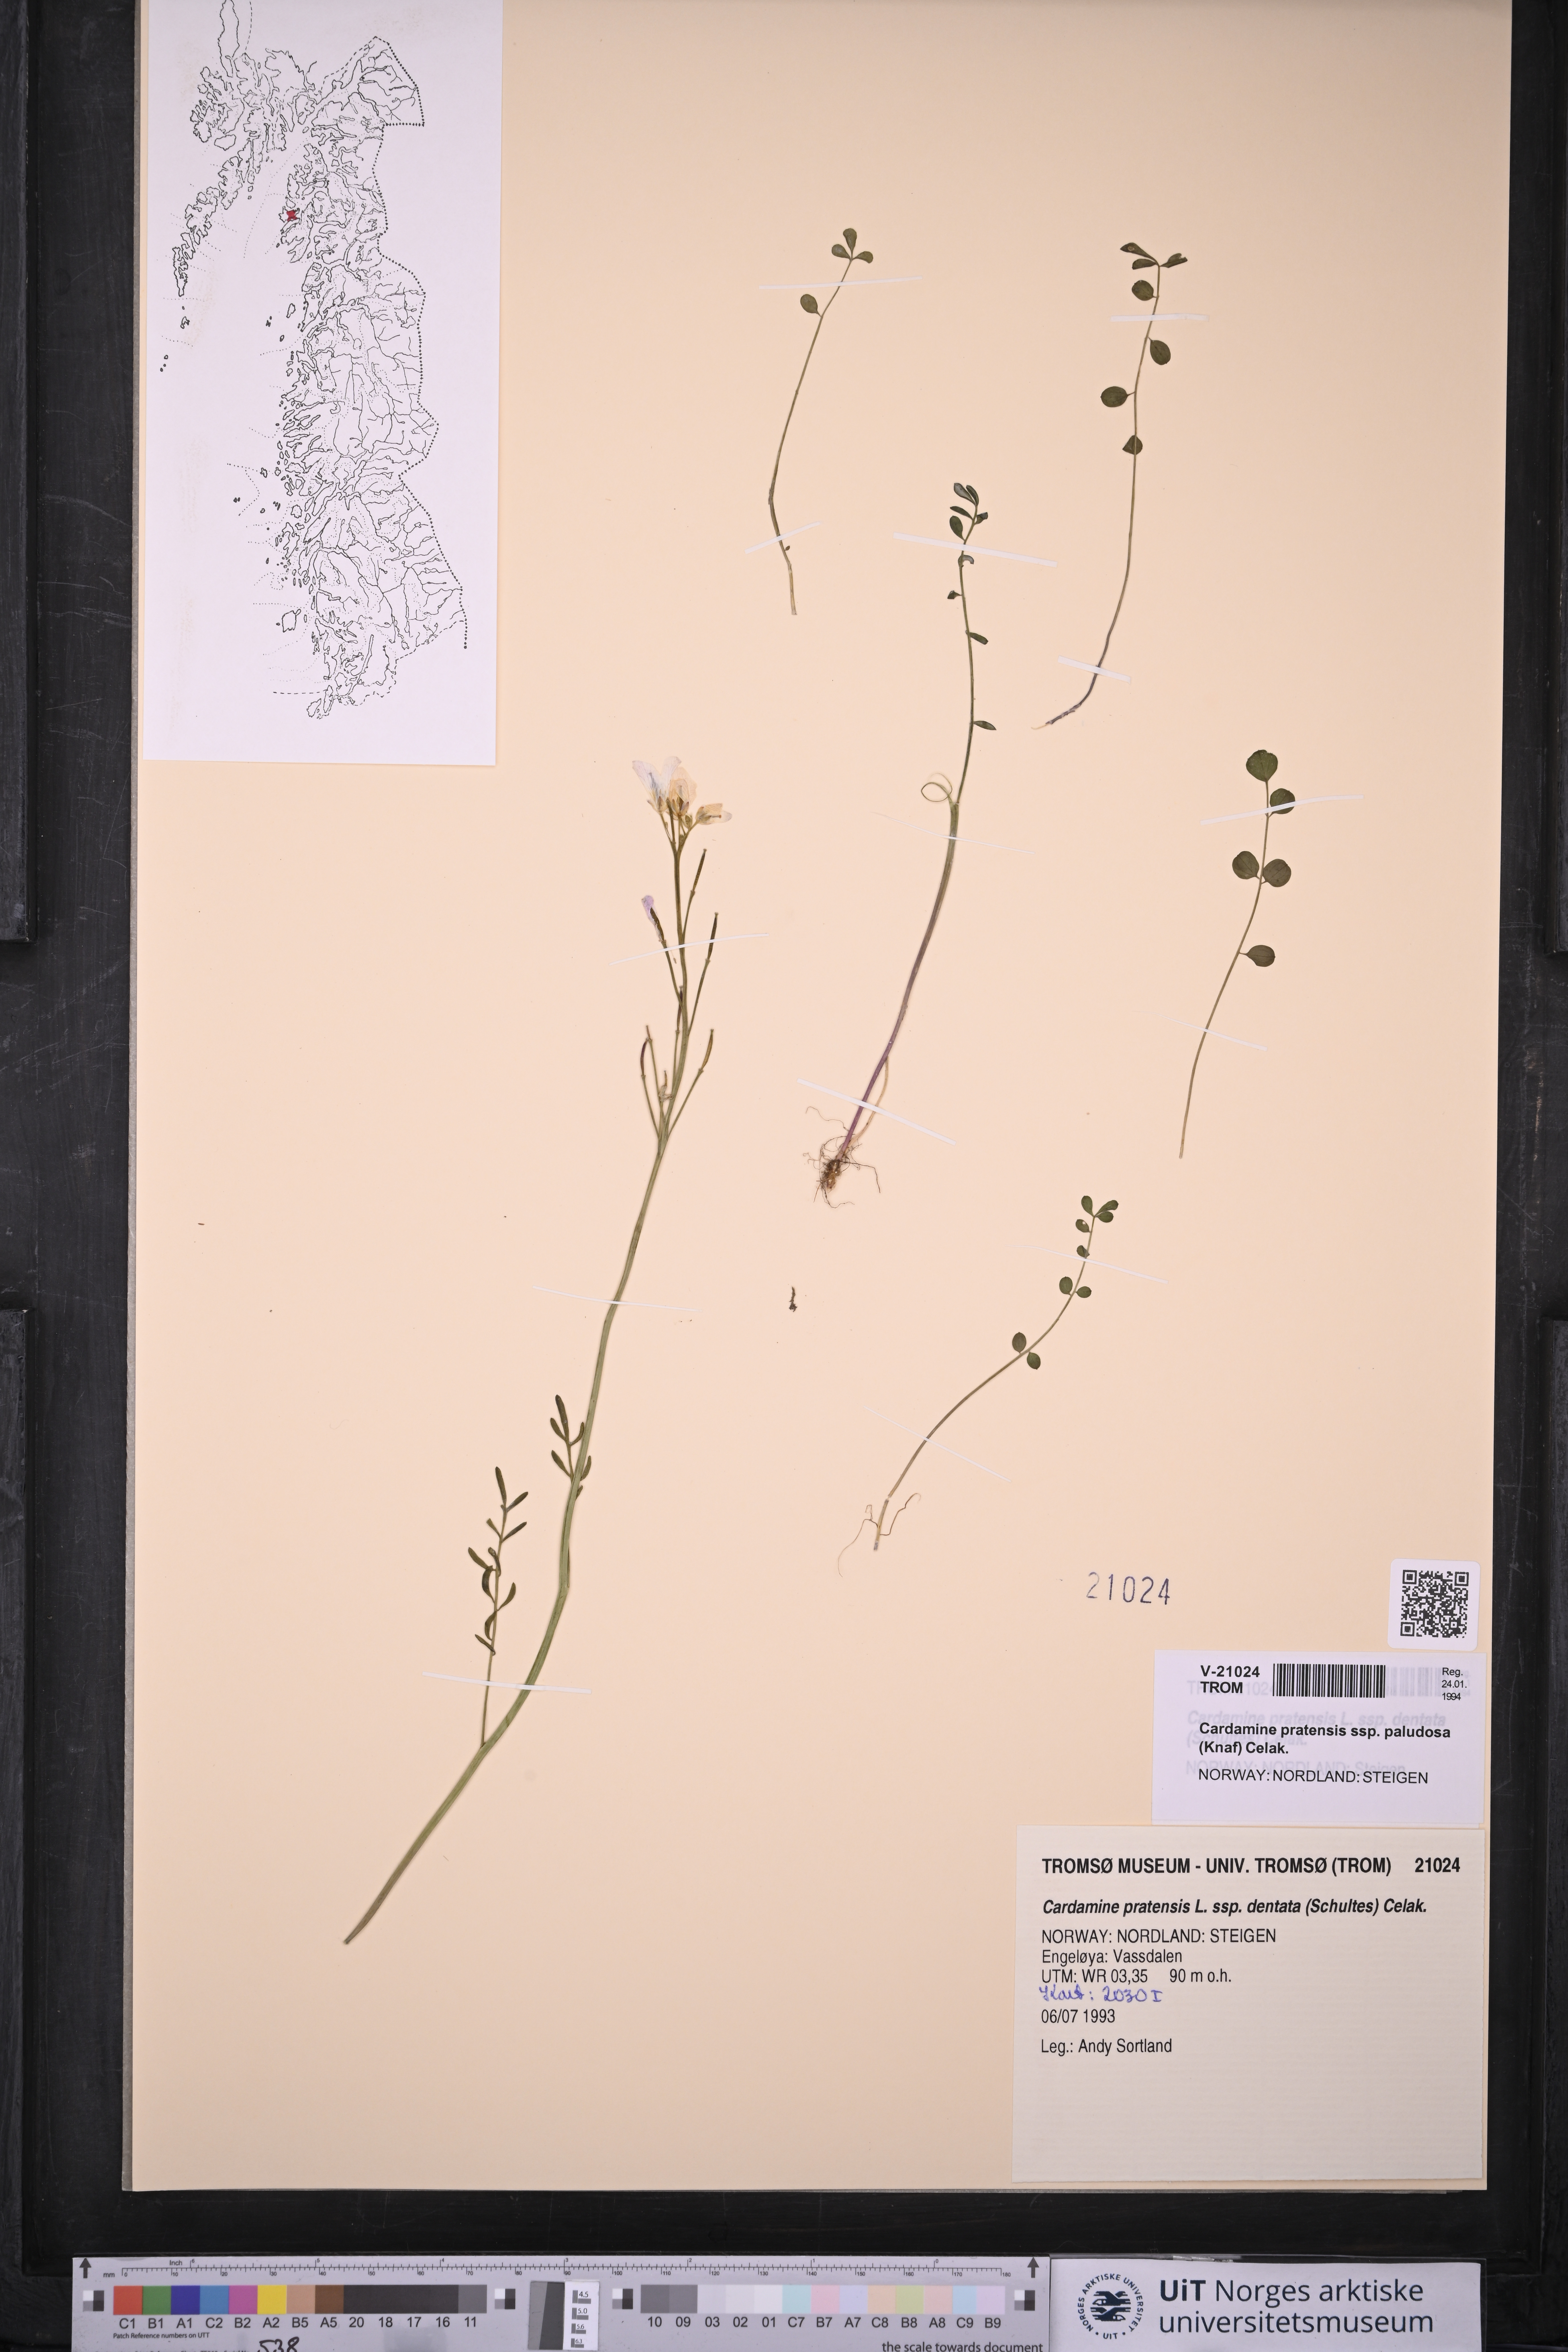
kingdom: Plantae
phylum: Tracheophyta
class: Magnoliopsida
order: Brassicales
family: Brassicaceae
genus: Cardamine
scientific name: Cardamine dentata
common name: Toothed bittercress
